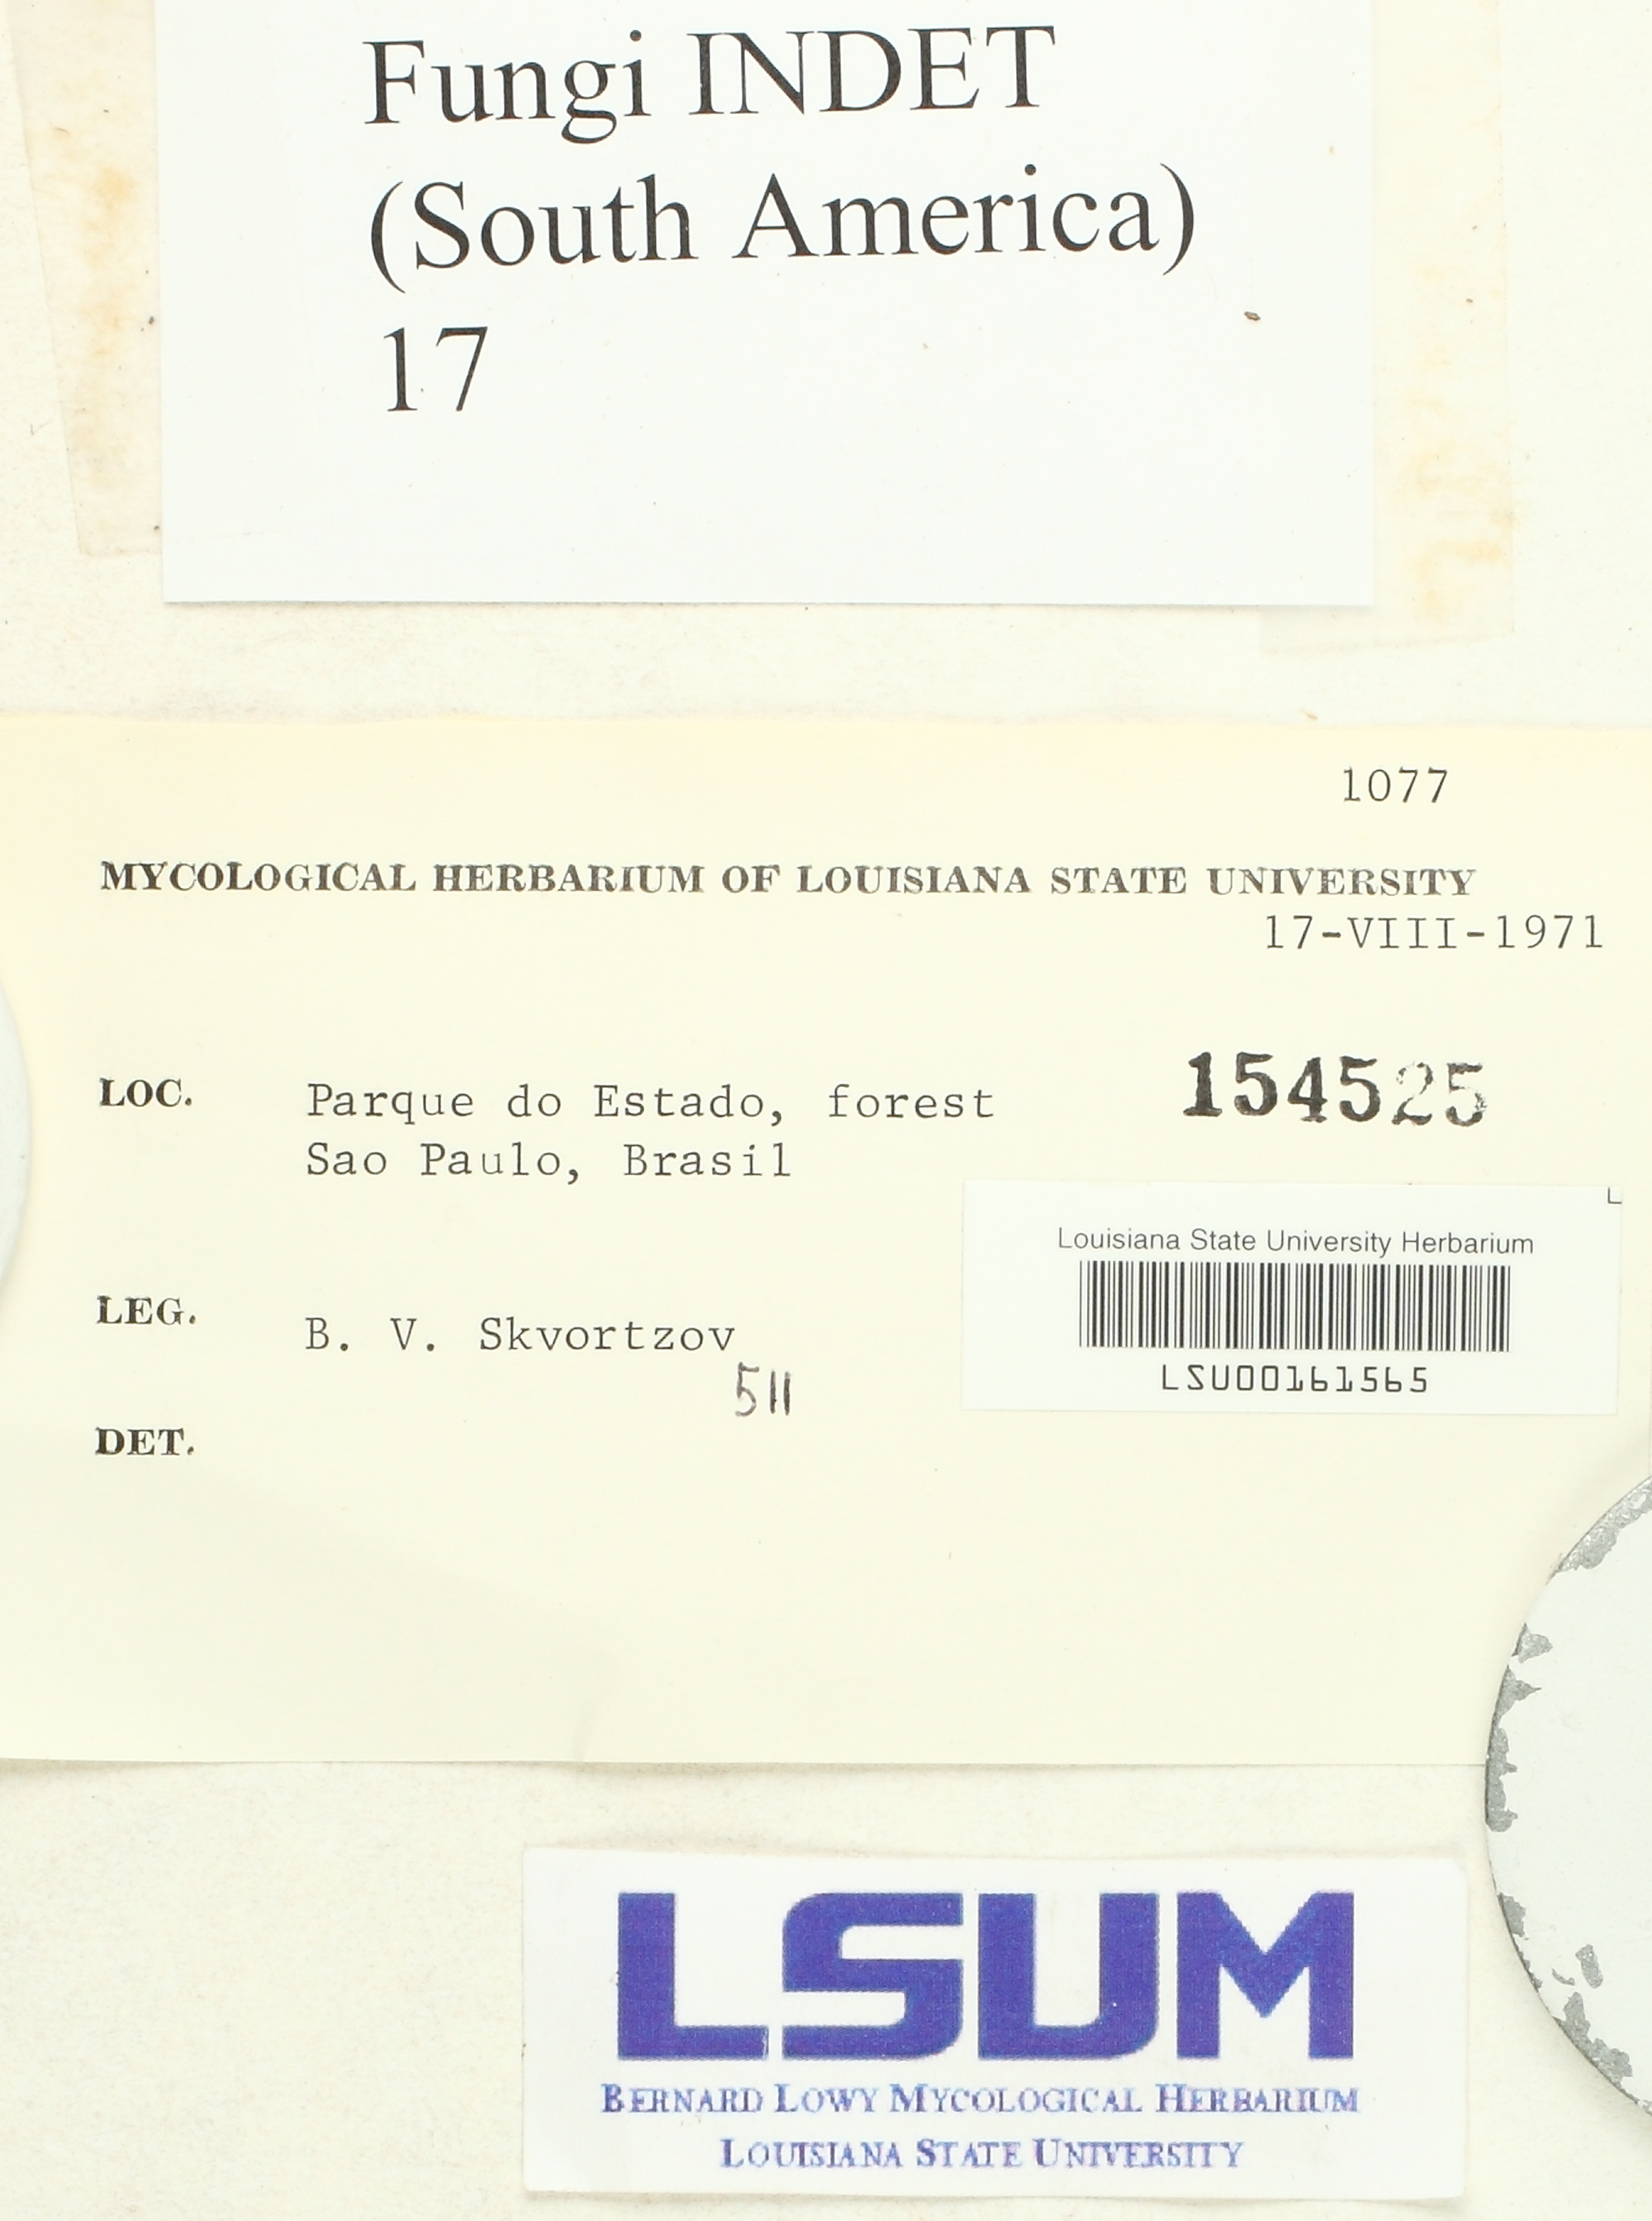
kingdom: Fungi
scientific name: Fungi
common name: Fungi
